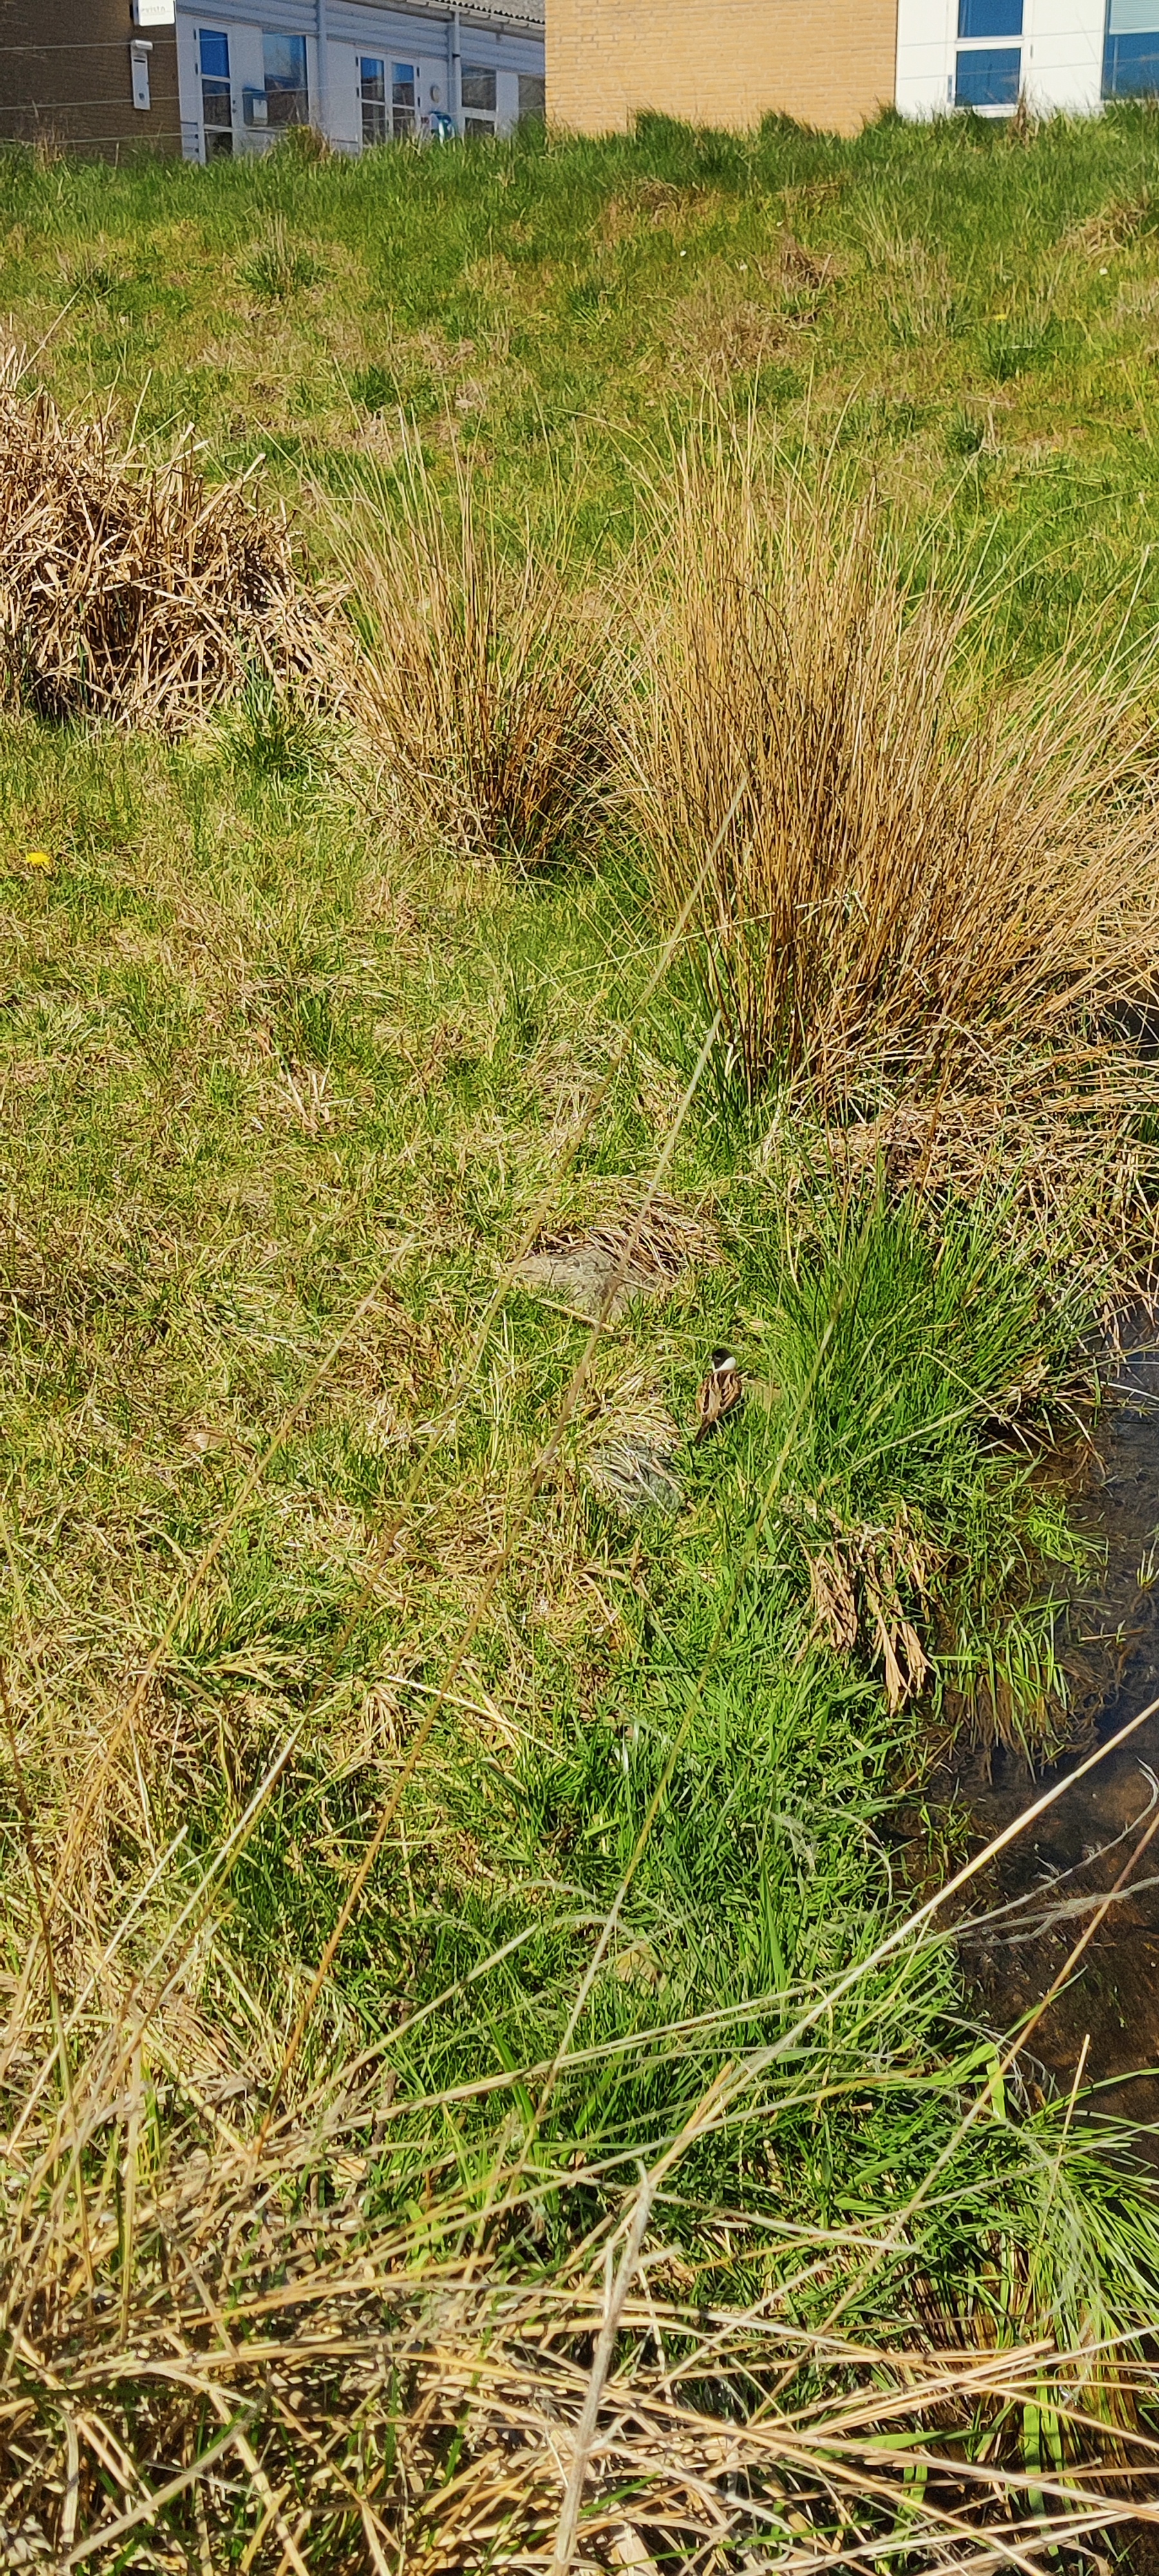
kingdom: Animalia
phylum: Chordata
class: Aves
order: Passeriformes
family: Emberizidae
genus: Emberiza
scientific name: Emberiza schoeniclus
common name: Rørspurv
